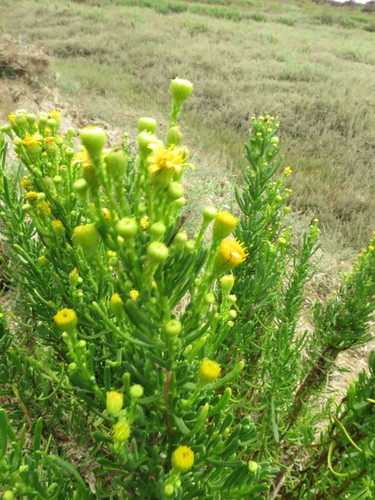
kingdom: Plantae
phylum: Tracheophyta
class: Magnoliopsida
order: Asterales
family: Asteraceae
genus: Limbarda
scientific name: Limbarda crithmoides
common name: Golden samphire
